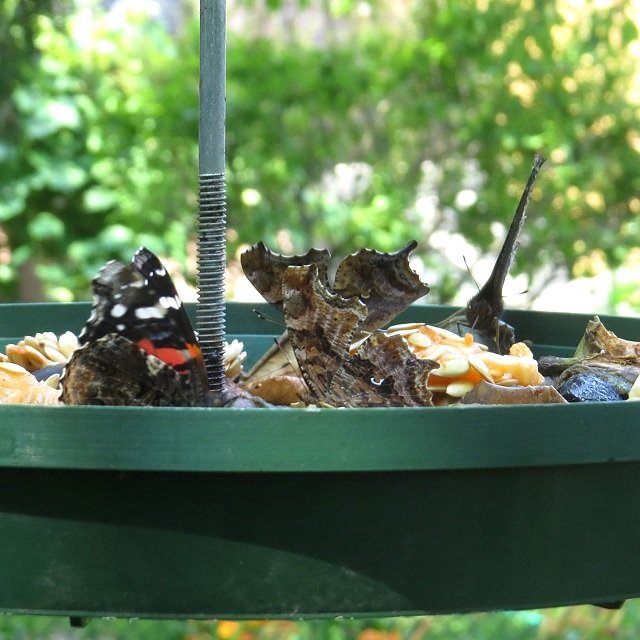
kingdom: Animalia
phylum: Arthropoda
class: Insecta
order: Lepidoptera
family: Nymphalidae
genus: Polygonia
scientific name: Polygonia comma
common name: Eastern Comma
